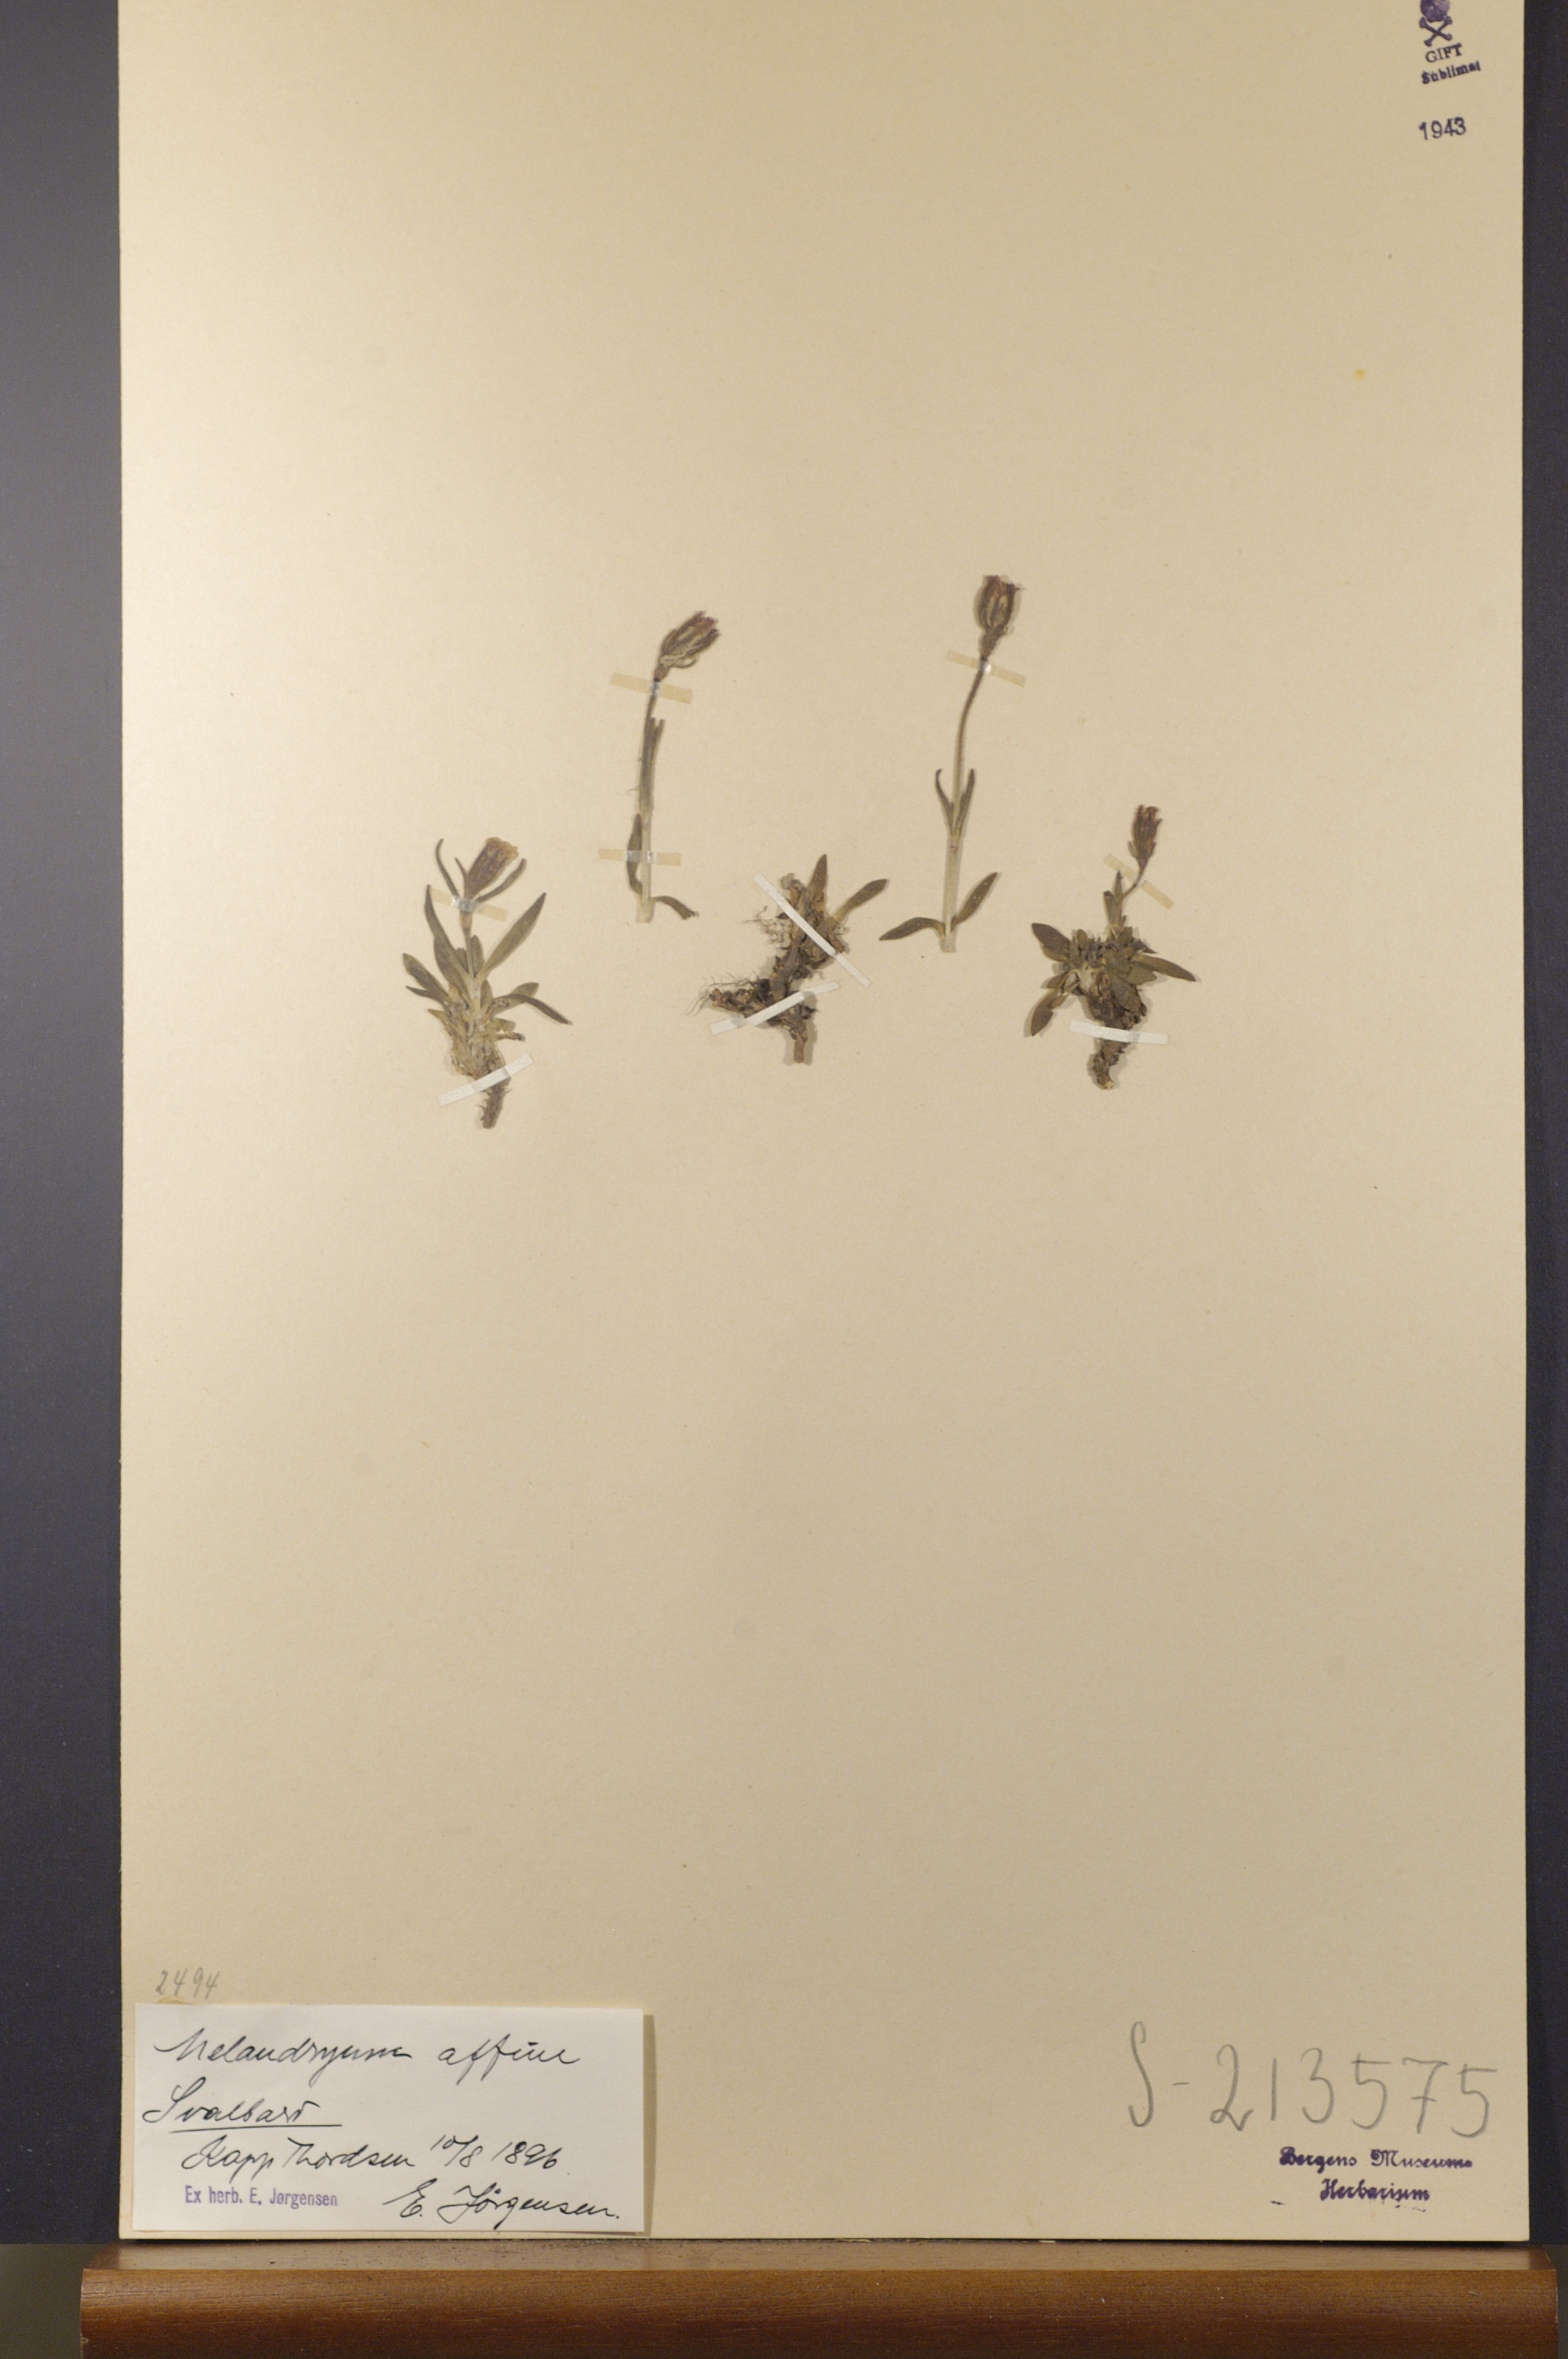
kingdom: Plantae
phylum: Tracheophyta
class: Magnoliopsida
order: Caryophyllales
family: Caryophyllaceae
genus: Silene
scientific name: Silene involucrata
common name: Greater arctic campion
